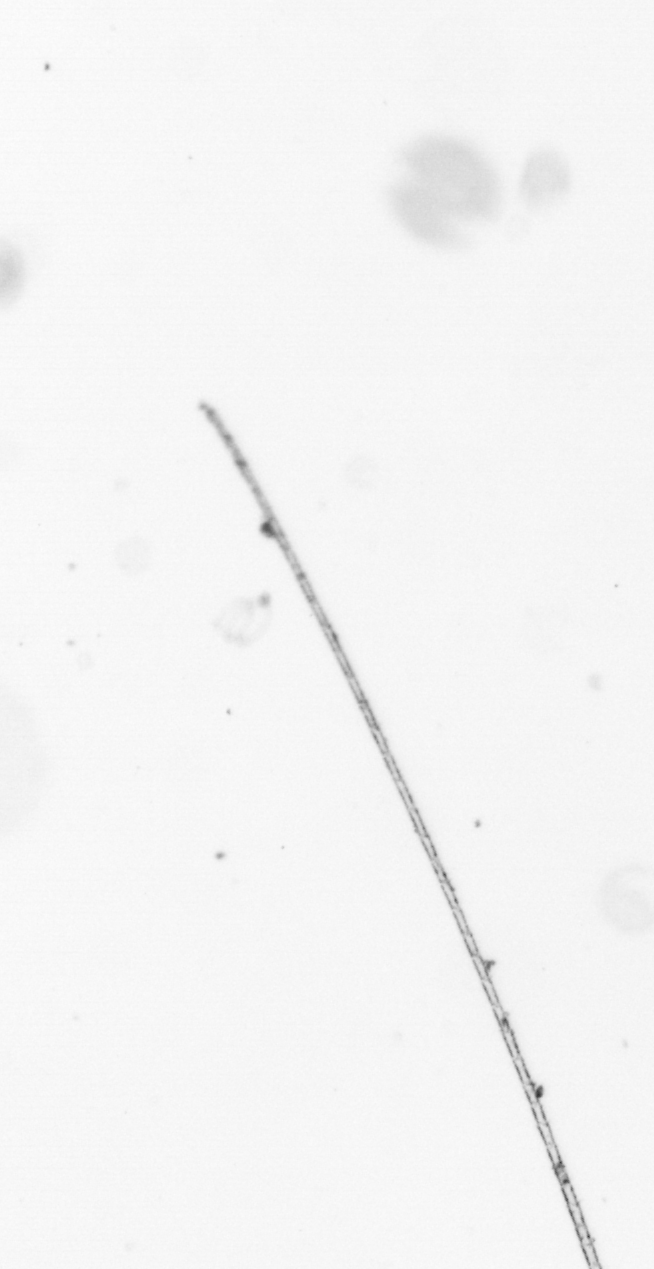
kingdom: Chromista
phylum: Ochrophyta
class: Bacillariophyceae
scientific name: Bacillariophyceae
